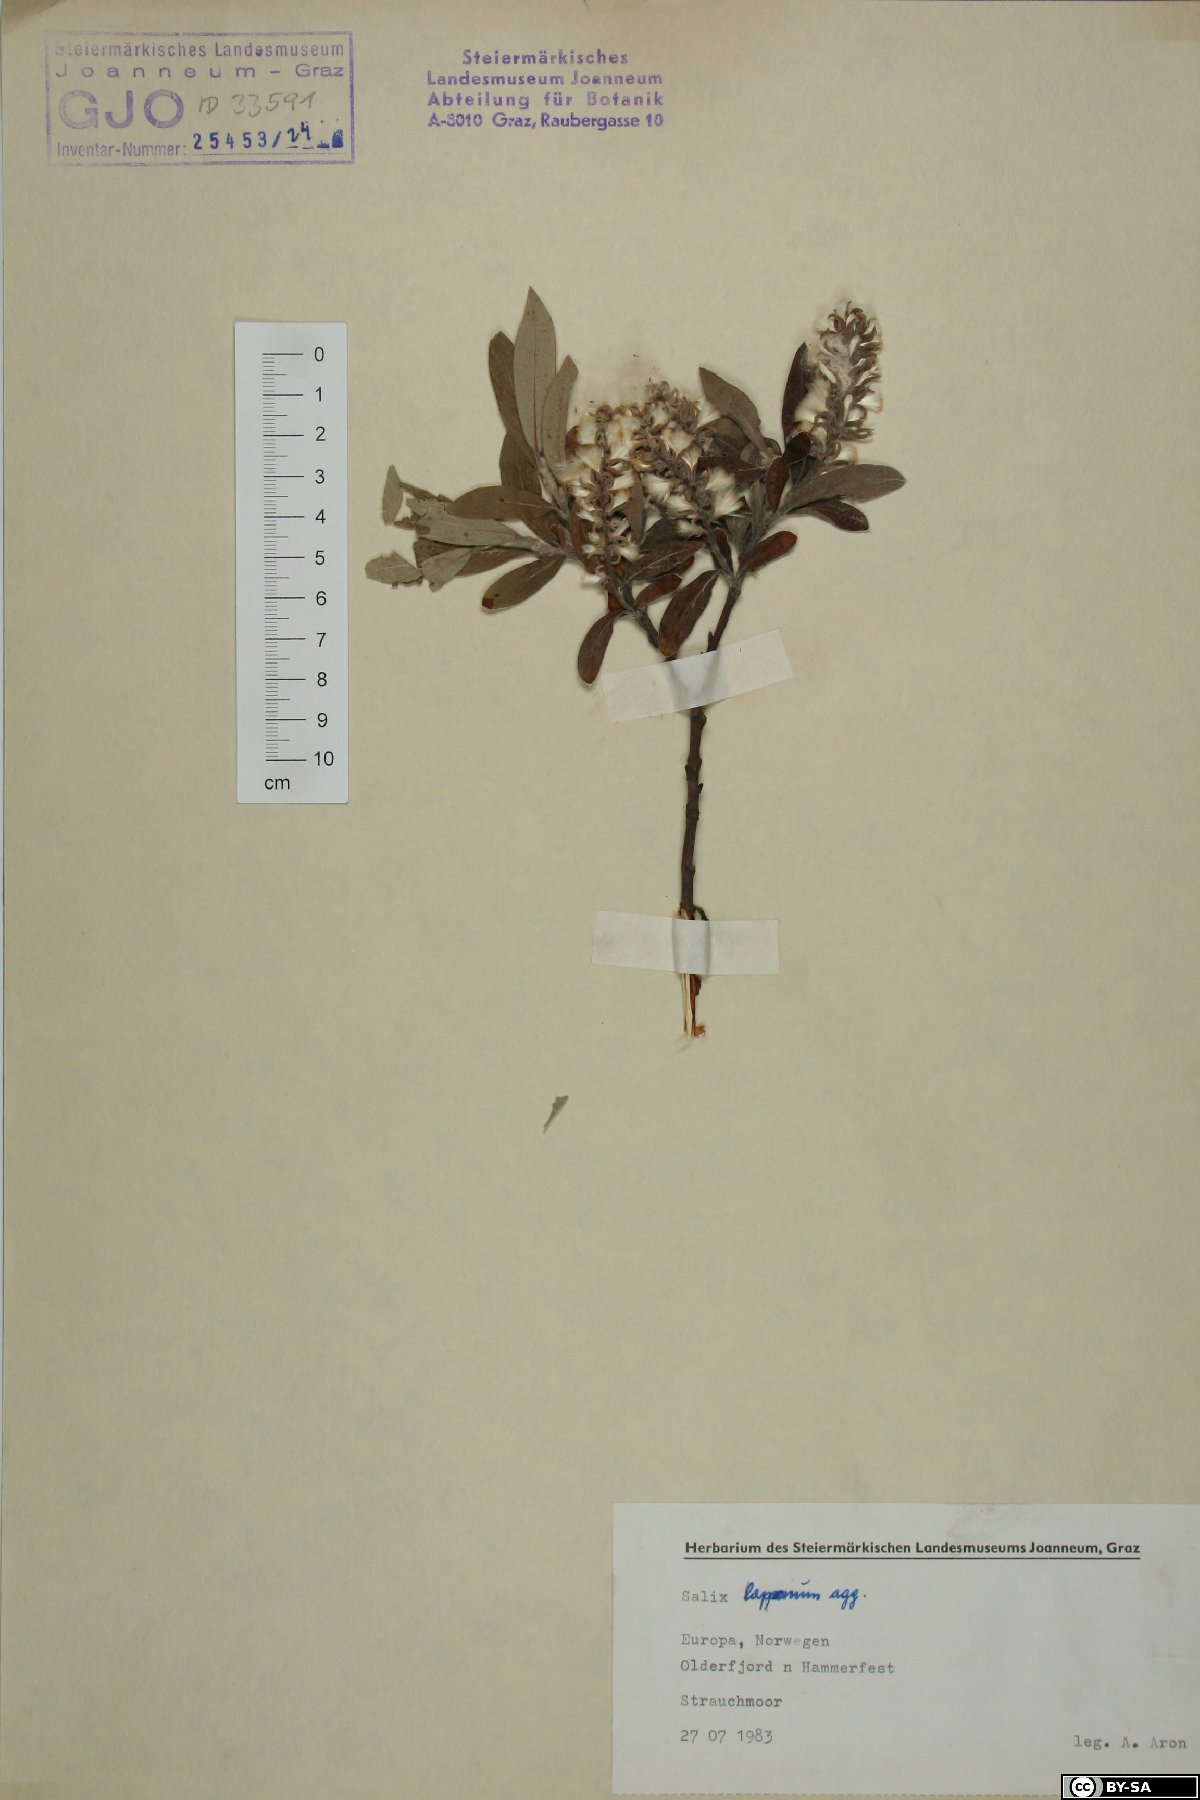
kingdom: Plantae
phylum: Tracheophyta
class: Magnoliopsida
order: Malpighiales
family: Salicaceae
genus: Salix
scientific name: Salix lapponum
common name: Downy willow
